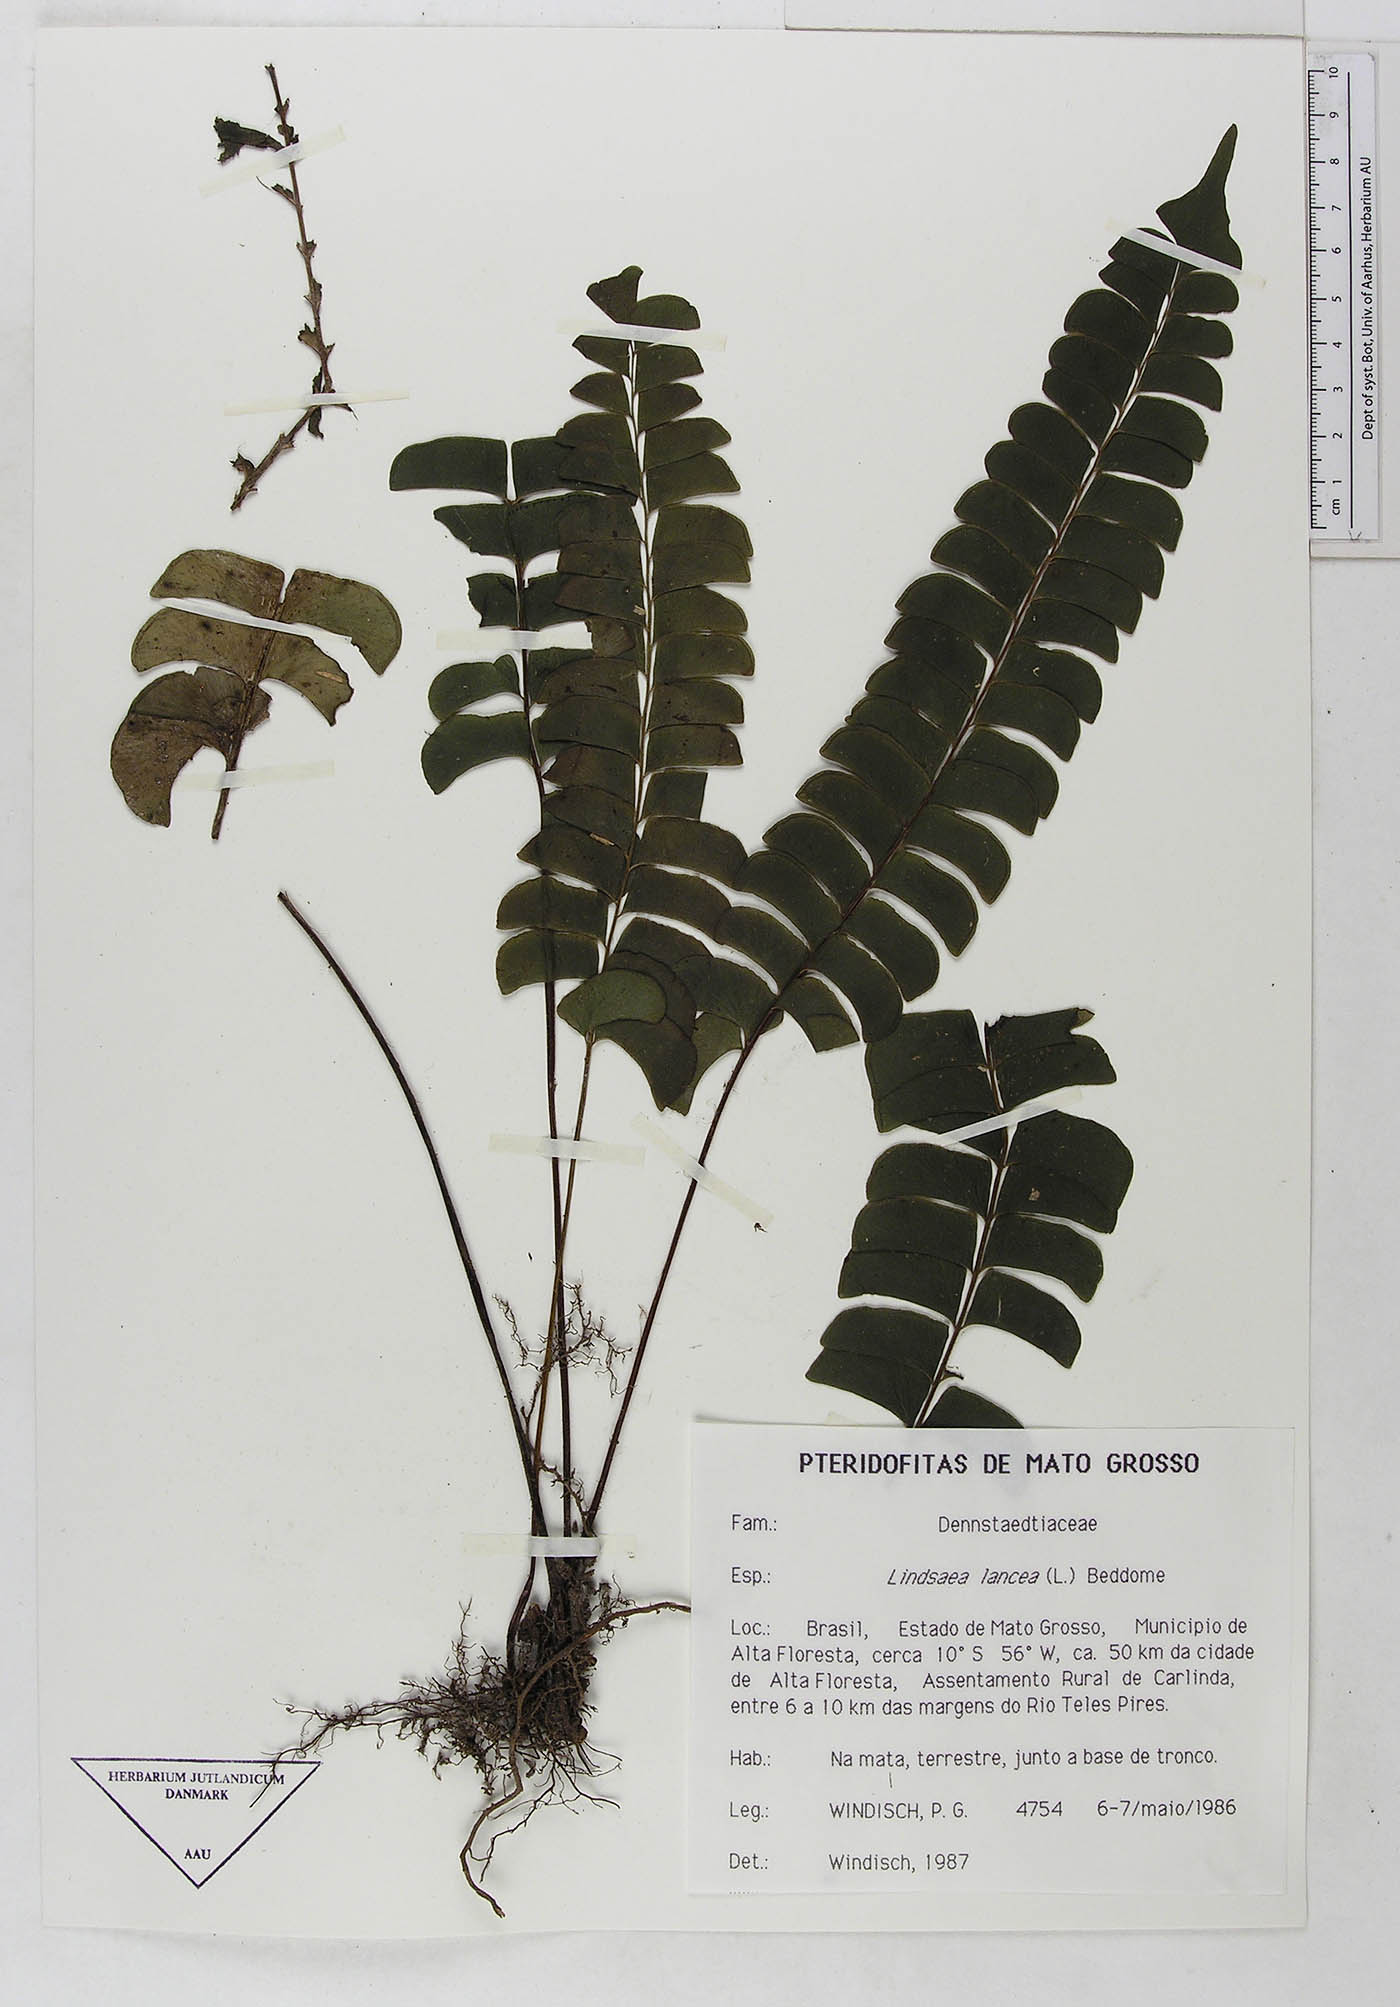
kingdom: Plantae
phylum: Tracheophyta
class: Polypodiopsida
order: Polypodiales
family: Dennstaedtiaceae
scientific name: Dennstaedtiaceae
